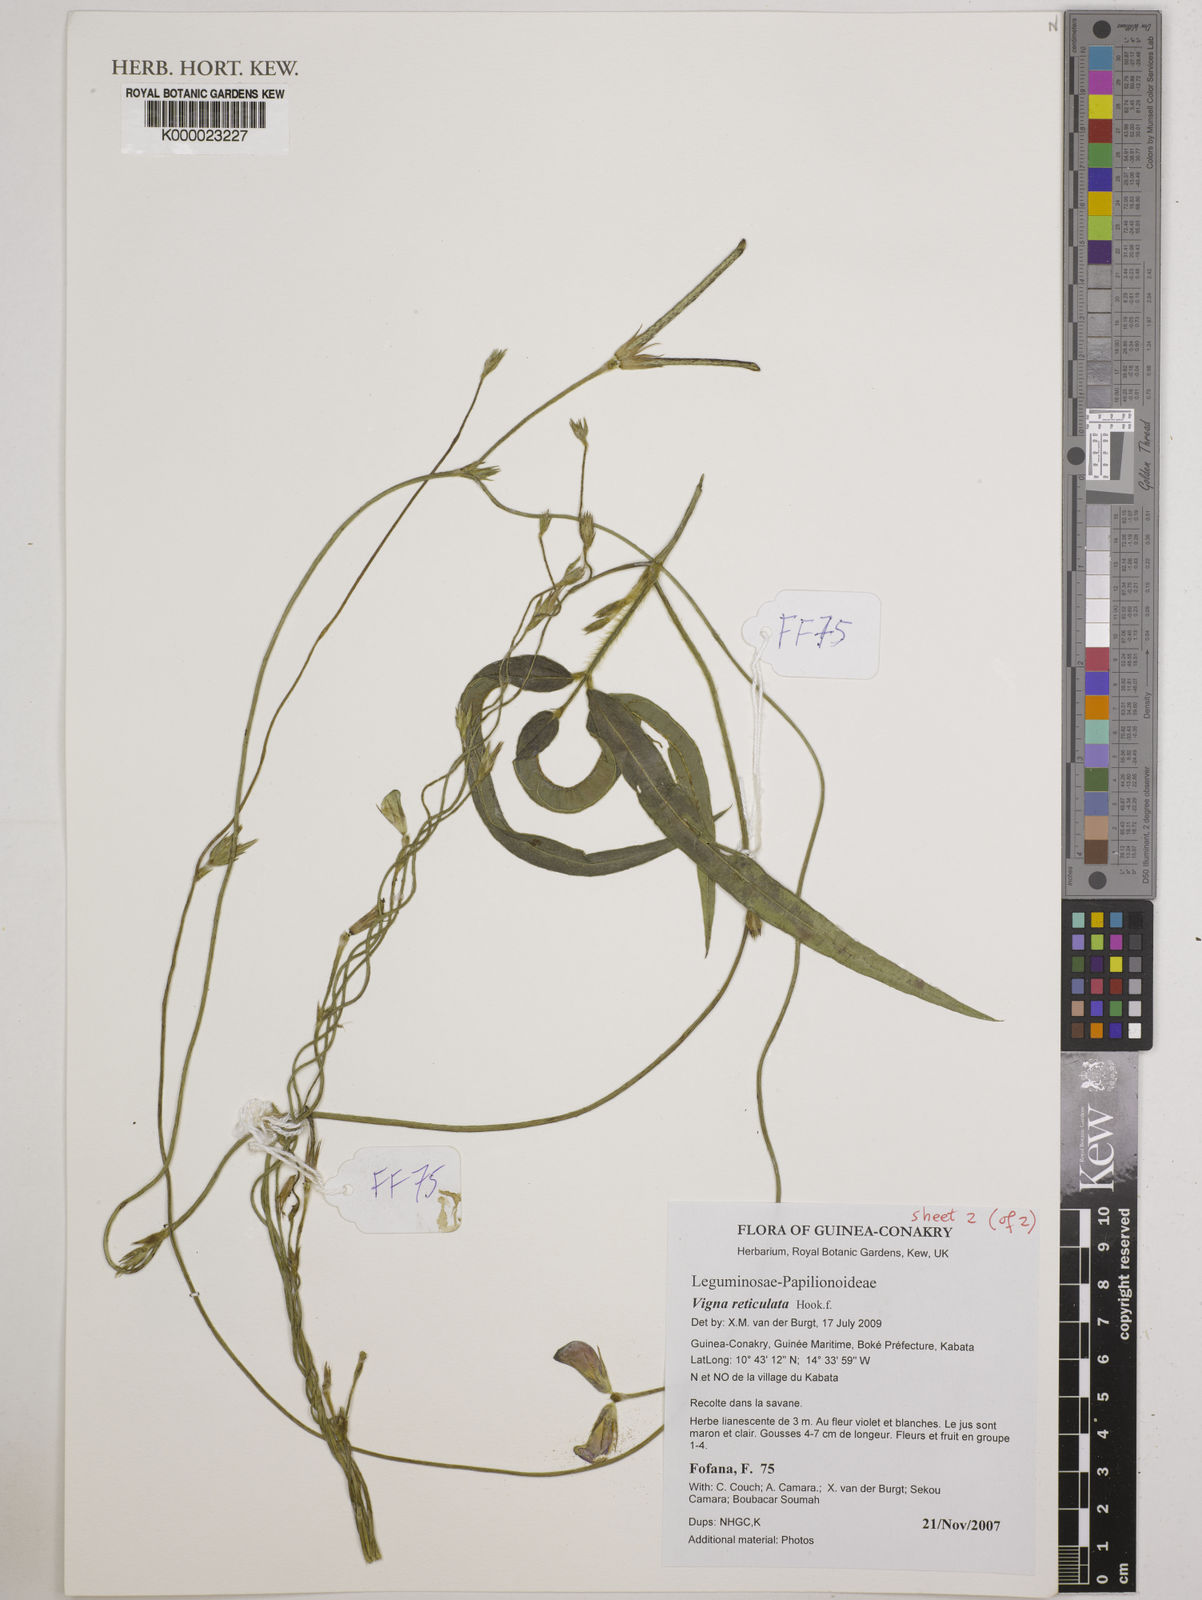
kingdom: Plantae
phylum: Tracheophyta
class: Magnoliopsida
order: Fabales
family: Fabaceae
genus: Vigna
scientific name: Vigna reticulata
